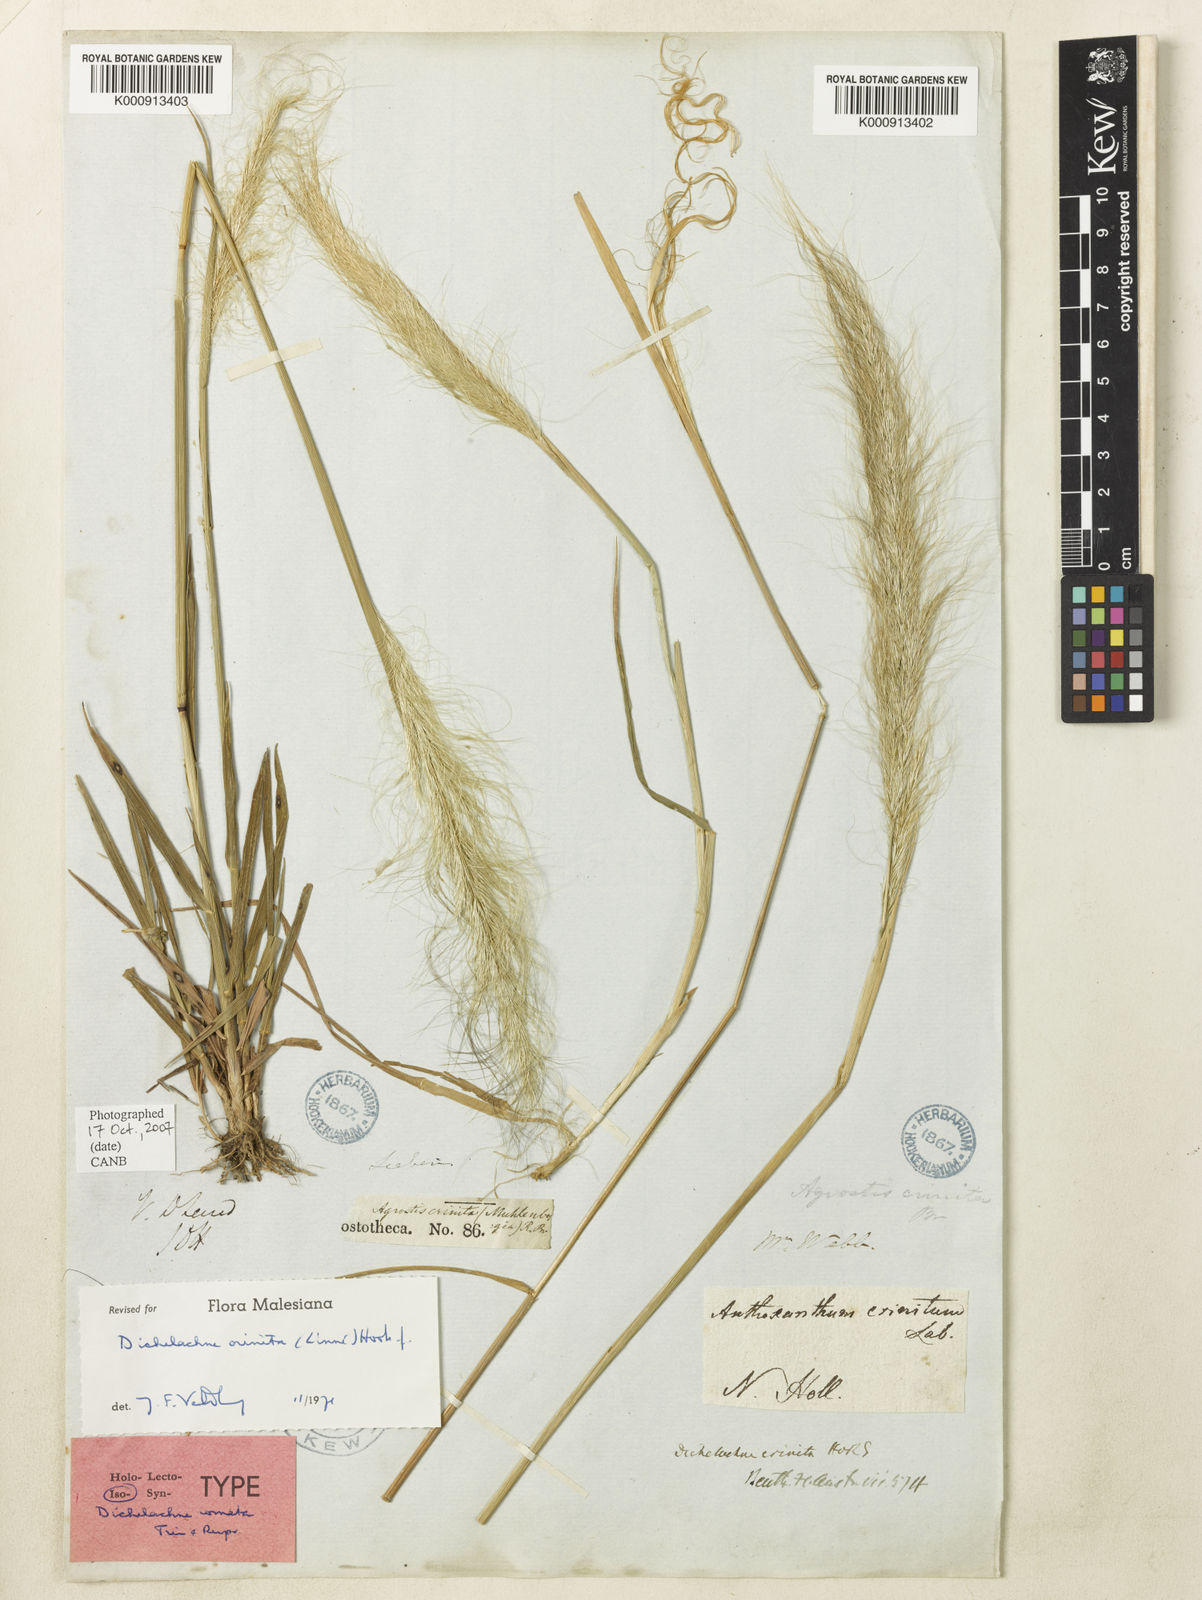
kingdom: Plantae
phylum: Tracheophyta
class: Liliopsida
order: Poales
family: Poaceae
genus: Dichelachne
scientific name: Dichelachne crinita
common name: Clovenfoot plumegrass
